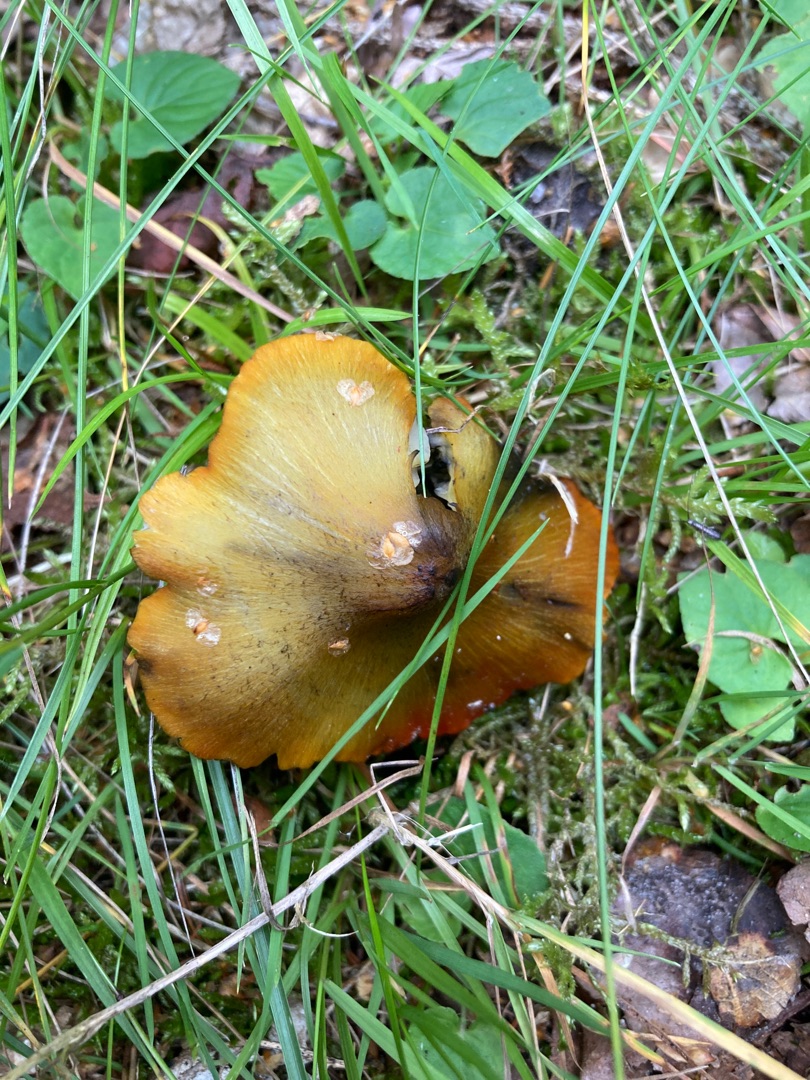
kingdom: Fungi
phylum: Basidiomycota
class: Agaricomycetes
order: Agaricales
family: Hygrophoraceae
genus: Hygrocybe
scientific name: Hygrocybe conica
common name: Kegle-vokshat
